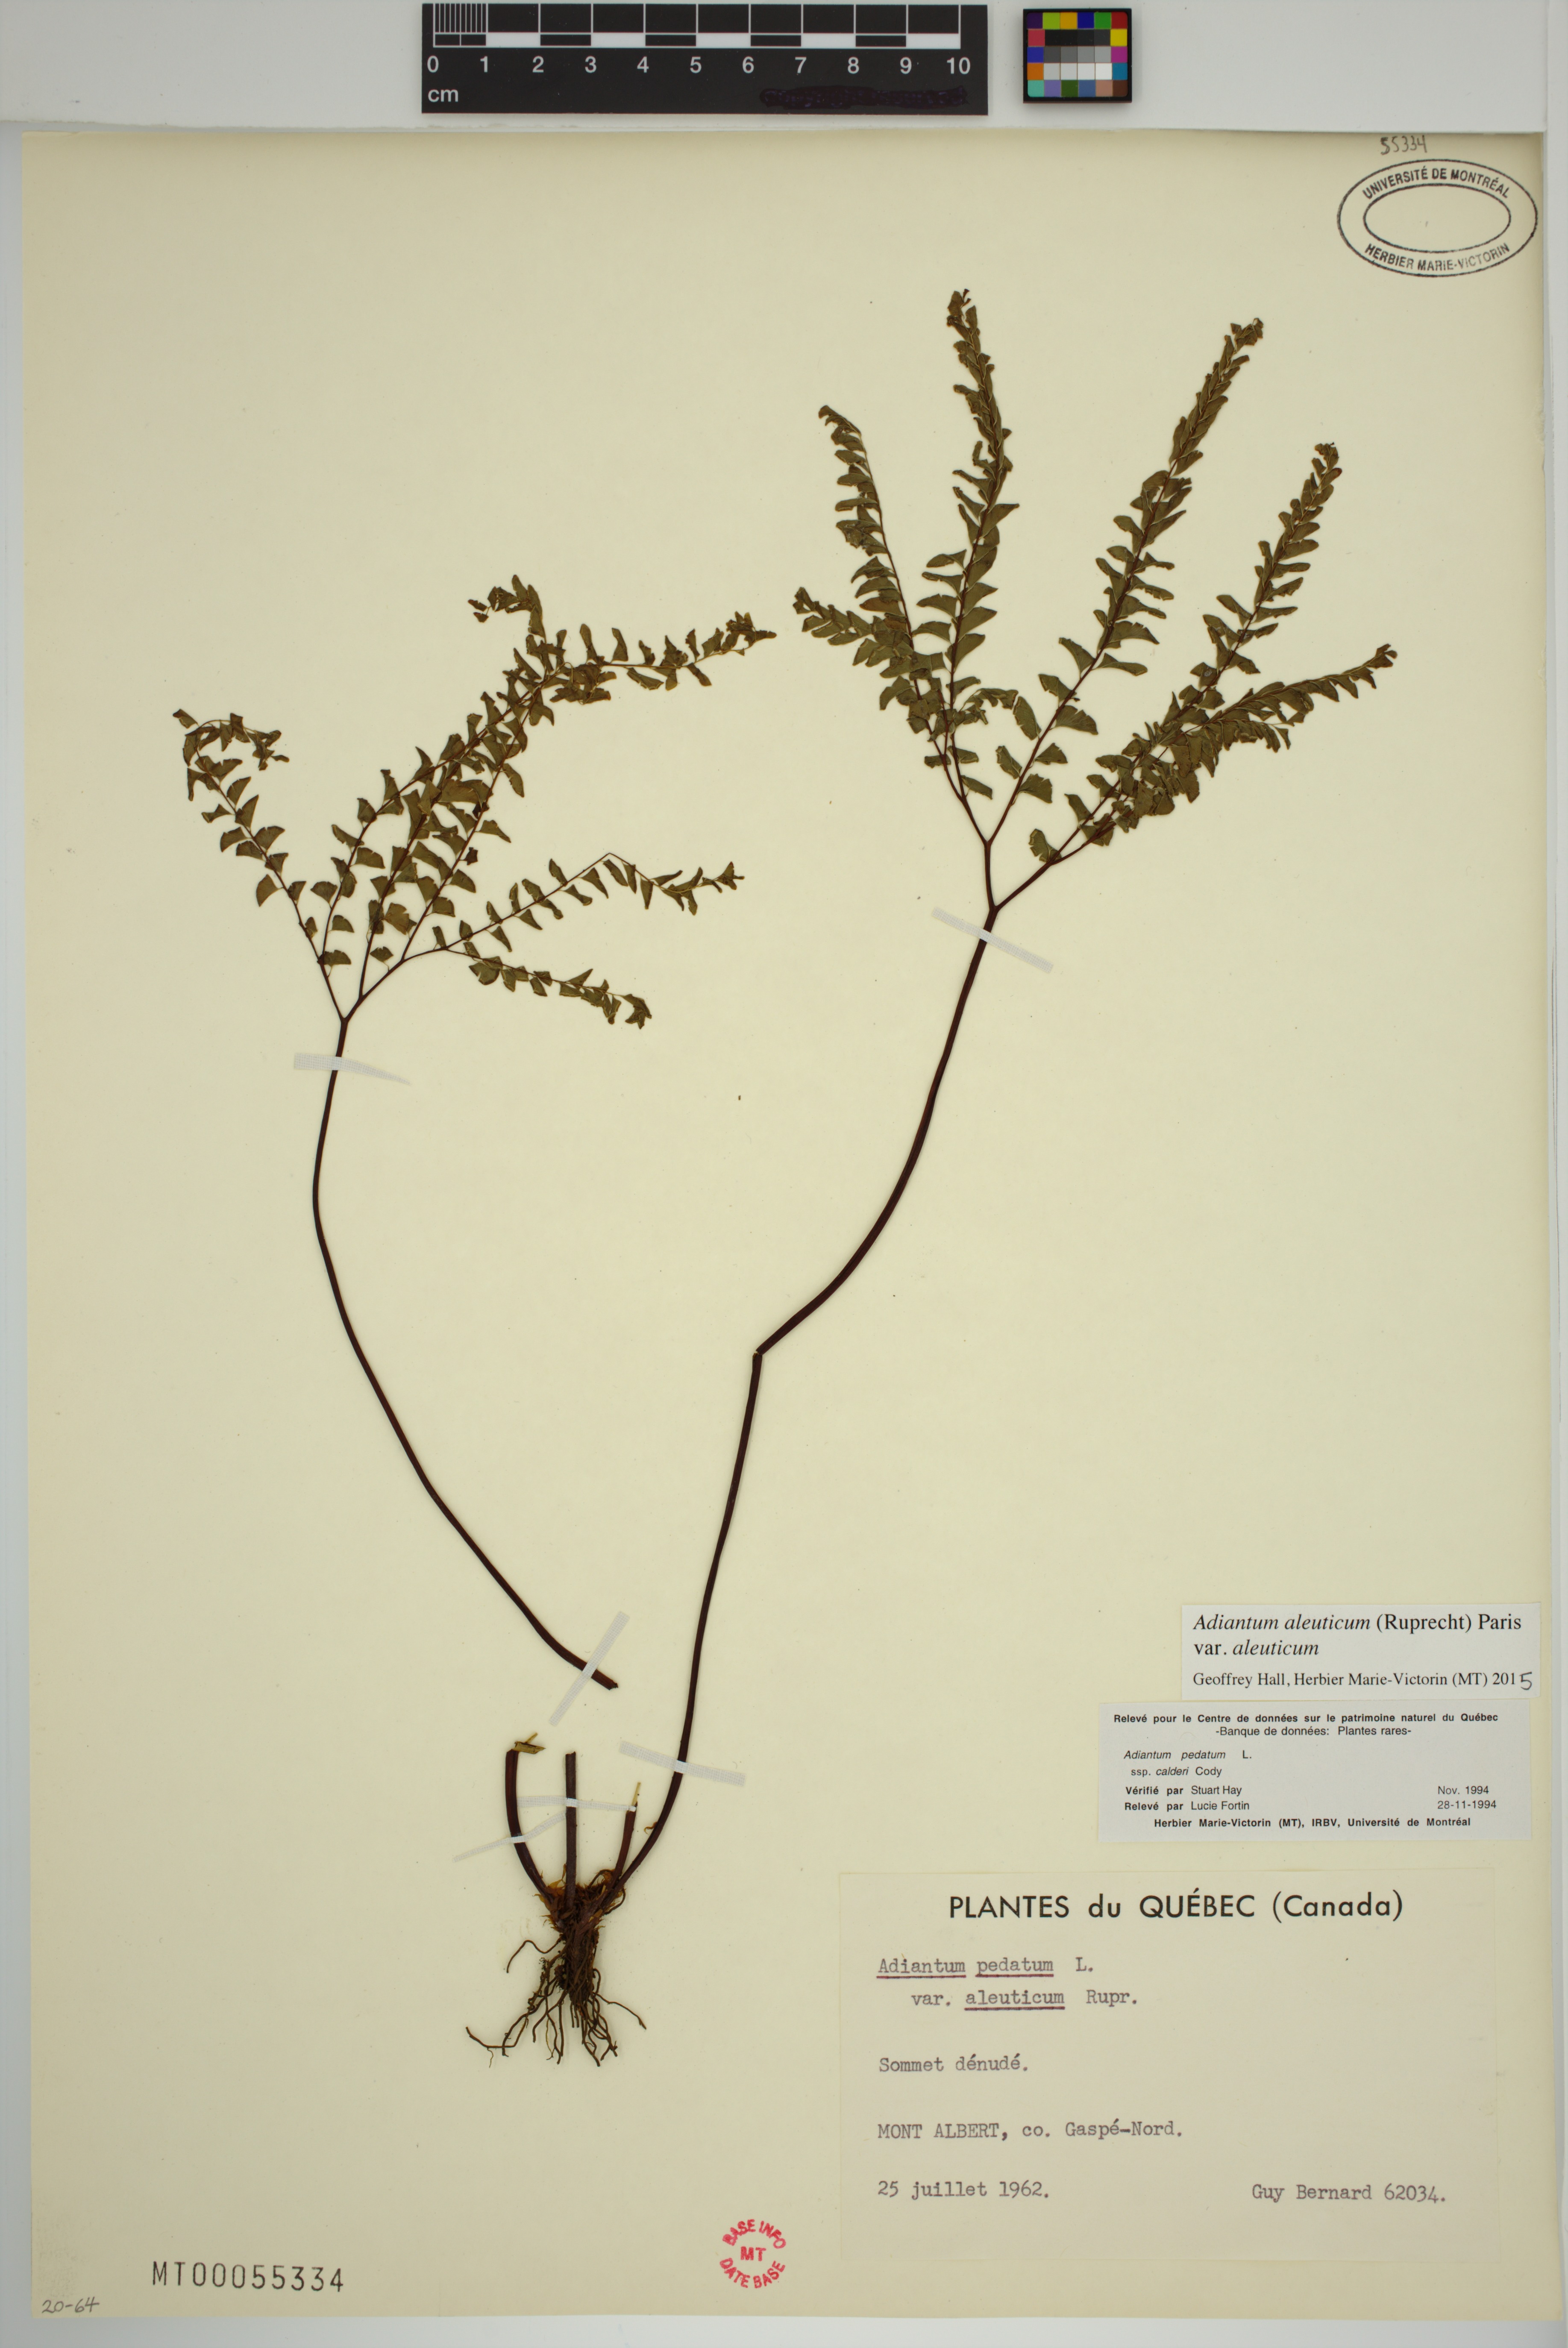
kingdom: Plantae
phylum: Tracheophyta
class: Polypodiopsida
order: Polypodiales
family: Pteridaceae
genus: Adiantum
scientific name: Adiantum aleuticum
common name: Aleutian maidenhair fern
